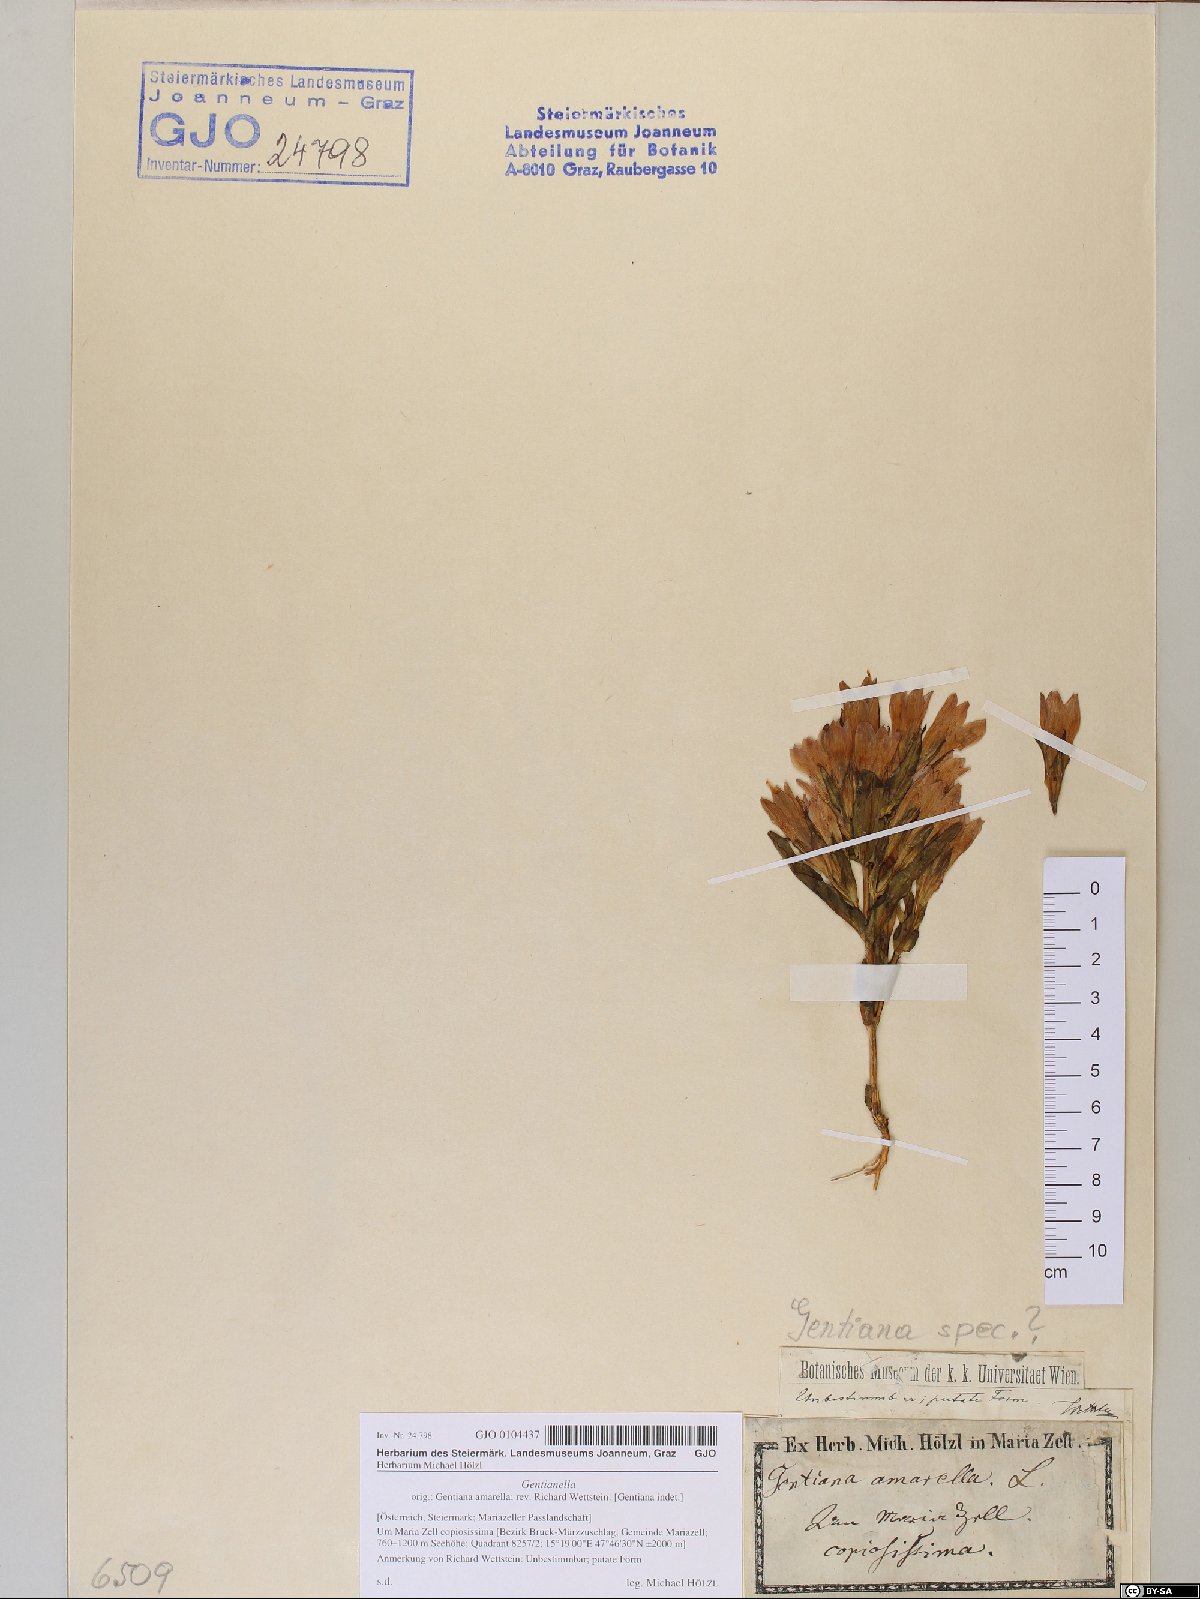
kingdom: Plantae
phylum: Tracheophyta
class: Magnoliopsida
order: Gentianales
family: Gentianaceae
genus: Gentianella
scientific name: Gentianella
